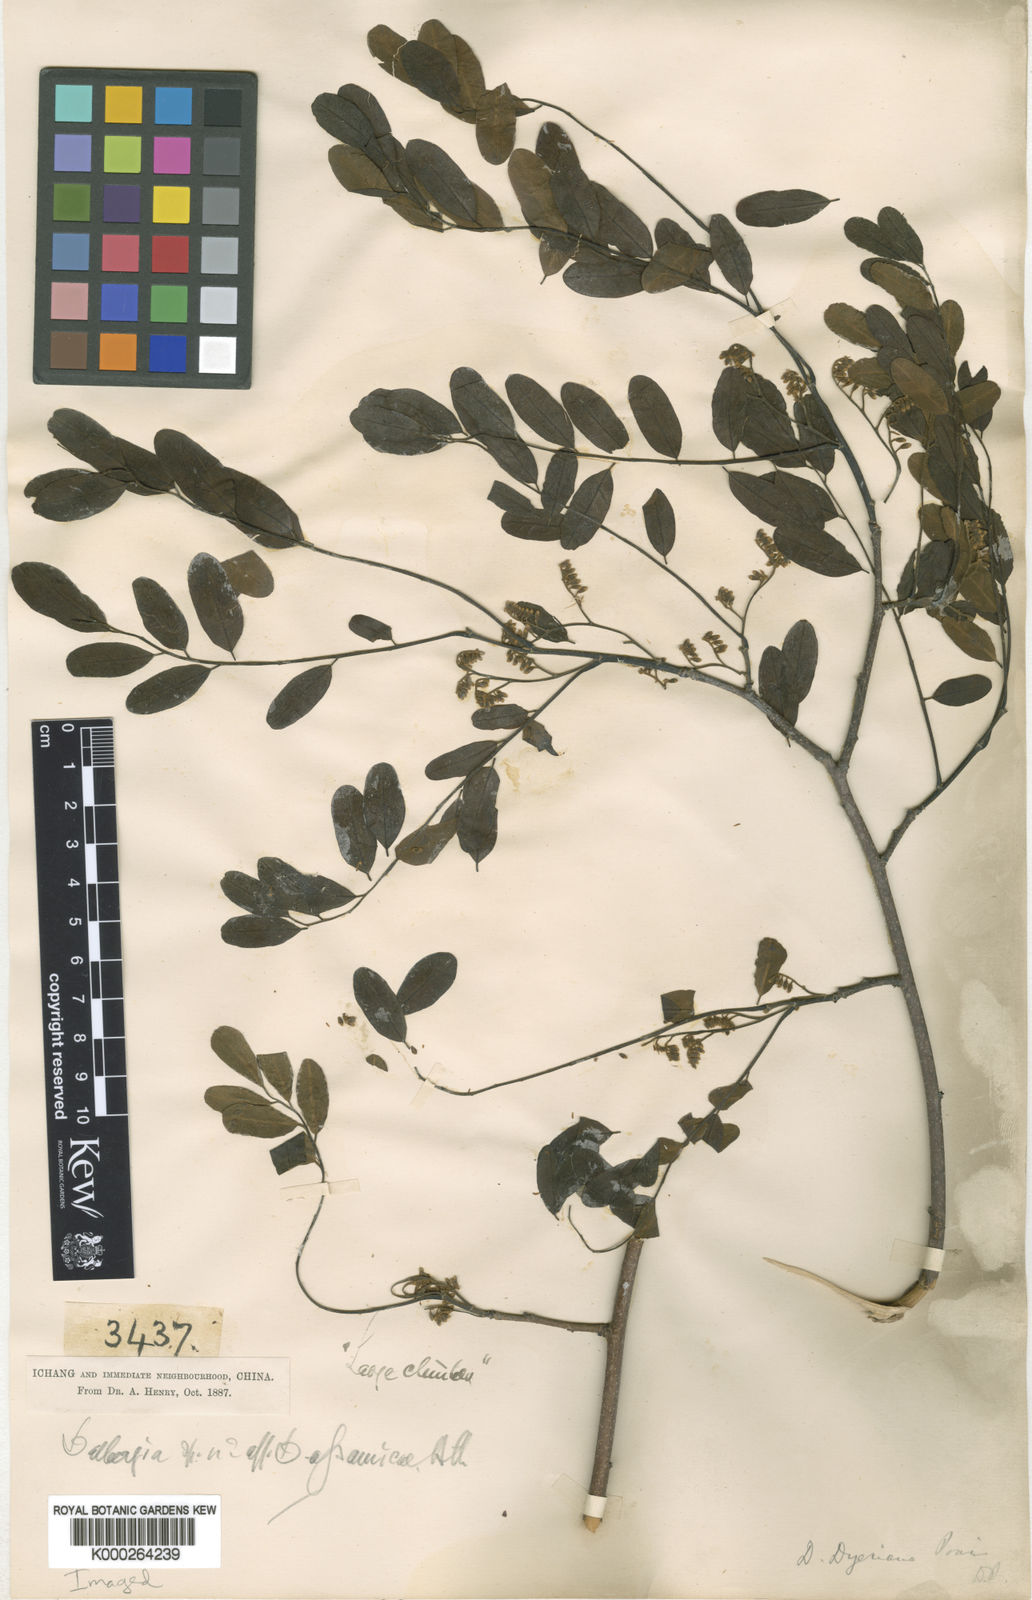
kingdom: Plantae
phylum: Tracheophyta
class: Magnoliopsida
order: Fabales
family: Fabaceae
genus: Dalbergia
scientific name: Dalbergia dyeriana
